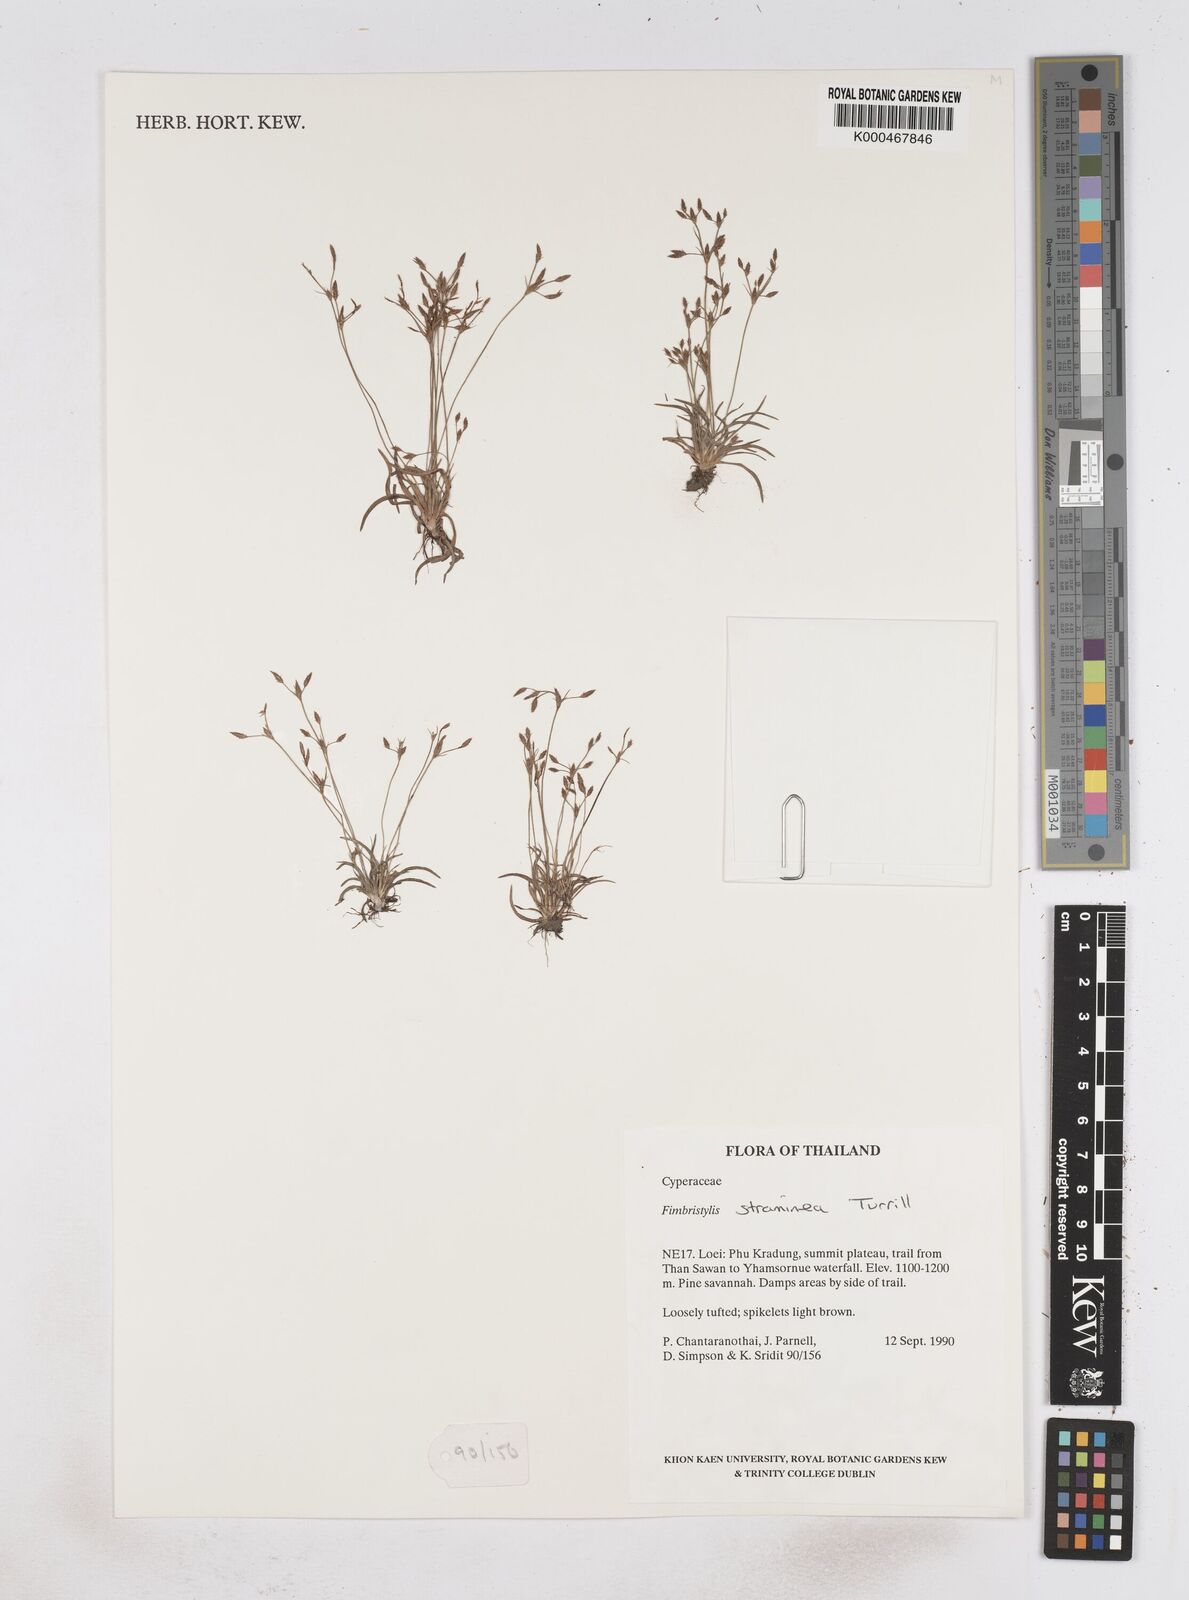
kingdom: Plantae
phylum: Tracheophyta
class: Liliopsida
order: Poales
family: Cyperaceae
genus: Fimbristylis
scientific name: Fimbristylis straminea
